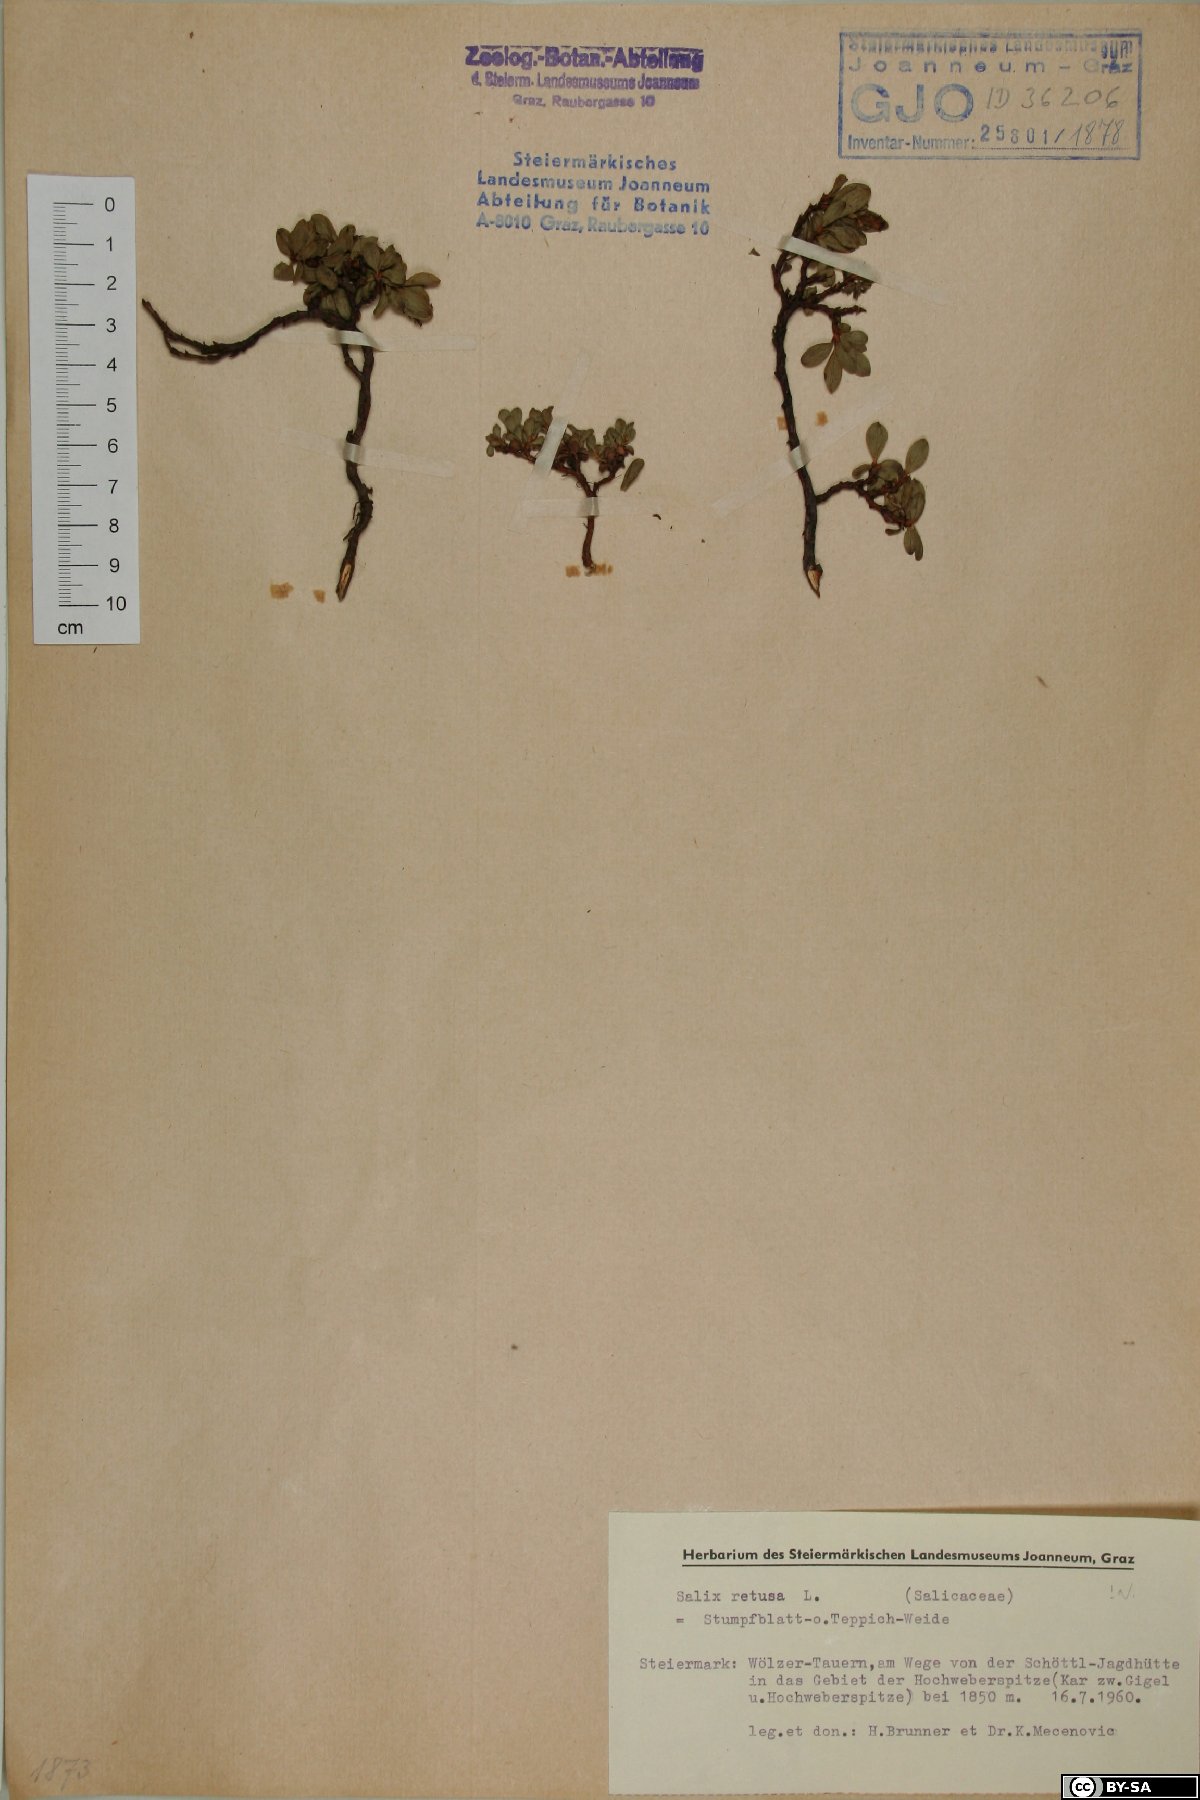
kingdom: Plantae
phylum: Tracheophyta
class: Magnoliopsida
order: Malpighiales
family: Salicaceae
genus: Salix
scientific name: Salix retusa
